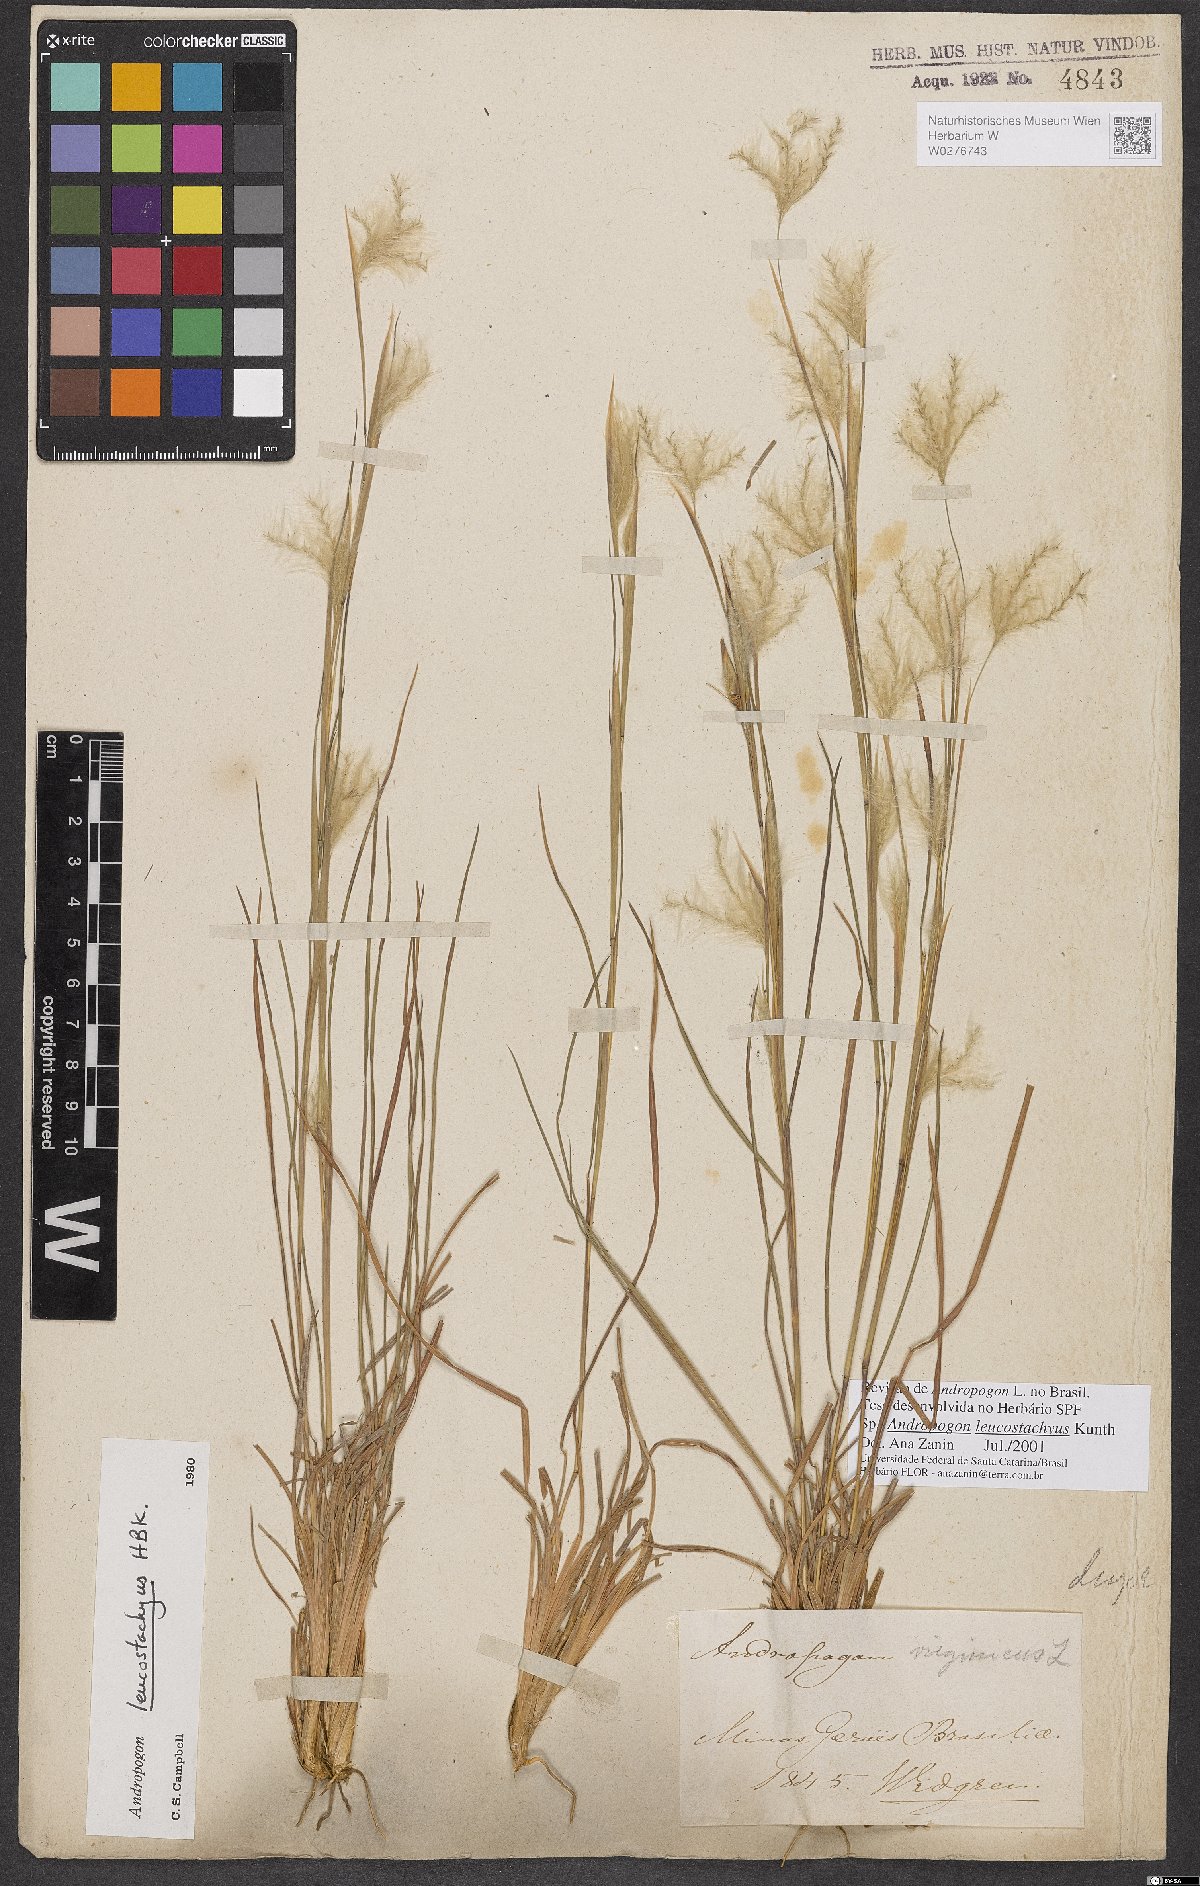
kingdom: Plantae
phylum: Tracheophyta
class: Liliopsida
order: Poales
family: Poaceae
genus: Andropogon
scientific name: Andropogon leucostachyus
